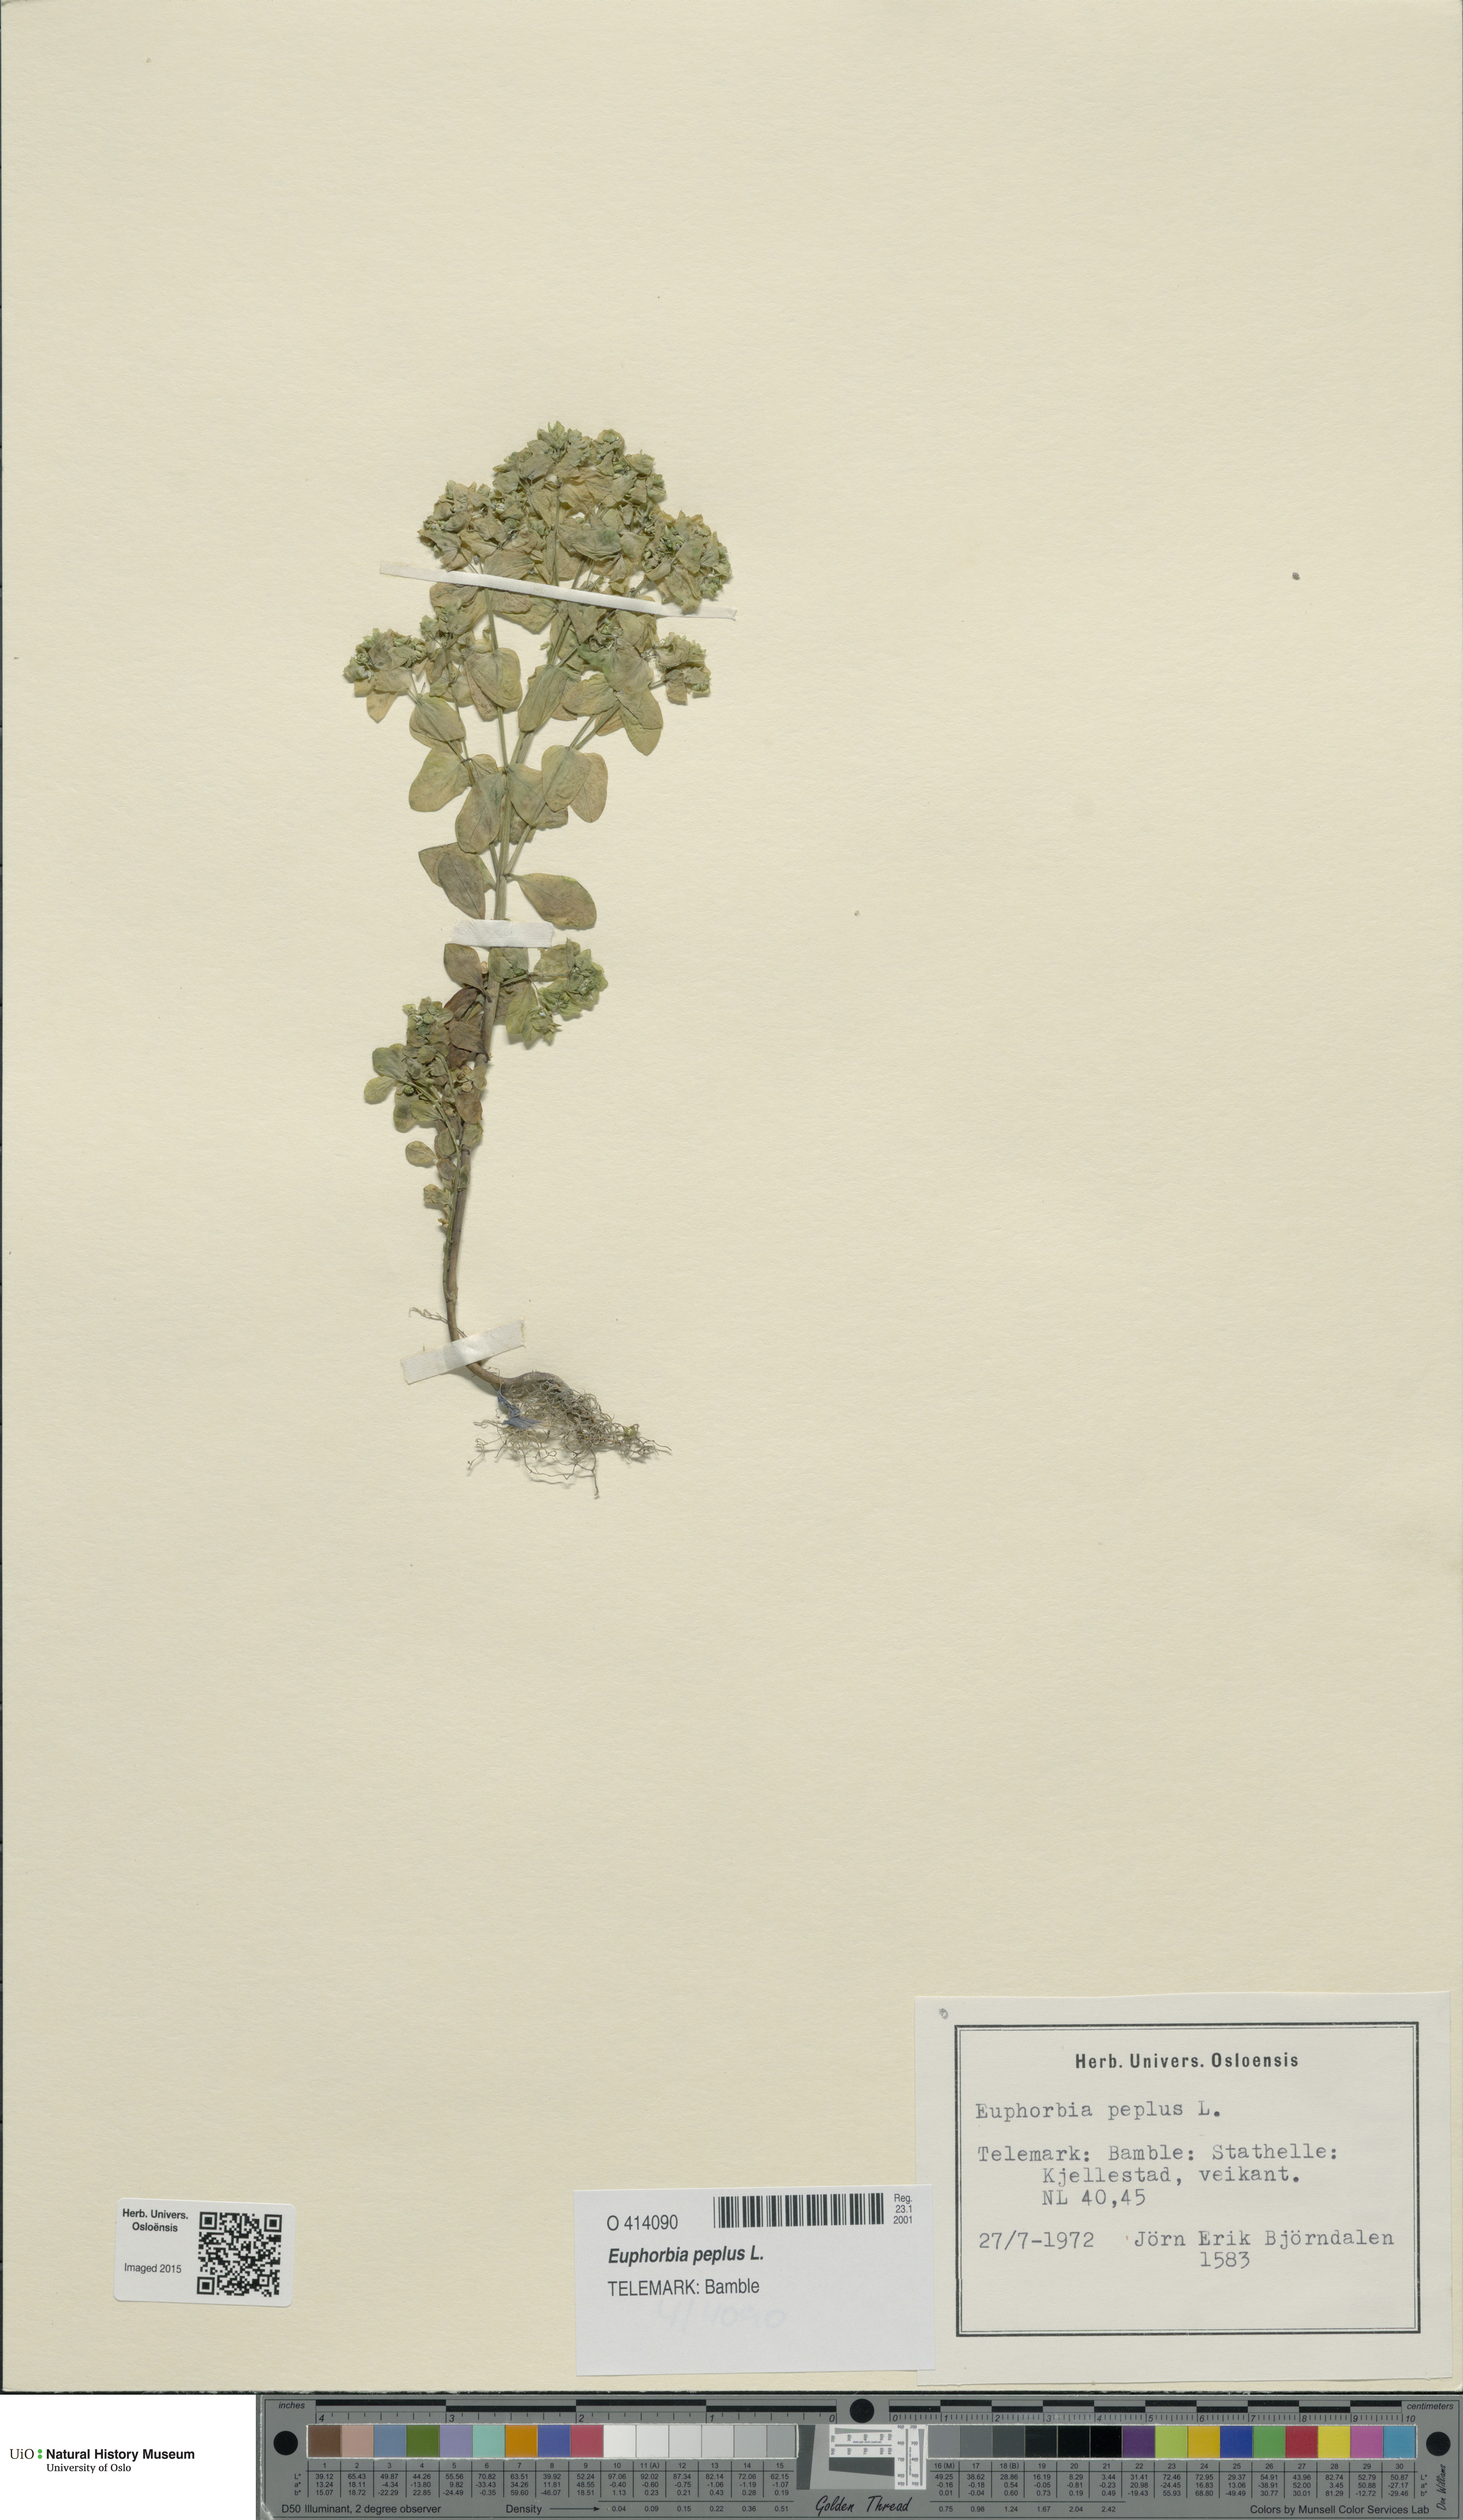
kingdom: Plantae
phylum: Tracheophyta
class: Magnoliopsida
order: Malpighiales
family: Euphorbiaceae
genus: Euphorbia
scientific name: Euphorbia peplus
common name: Petty spurge
